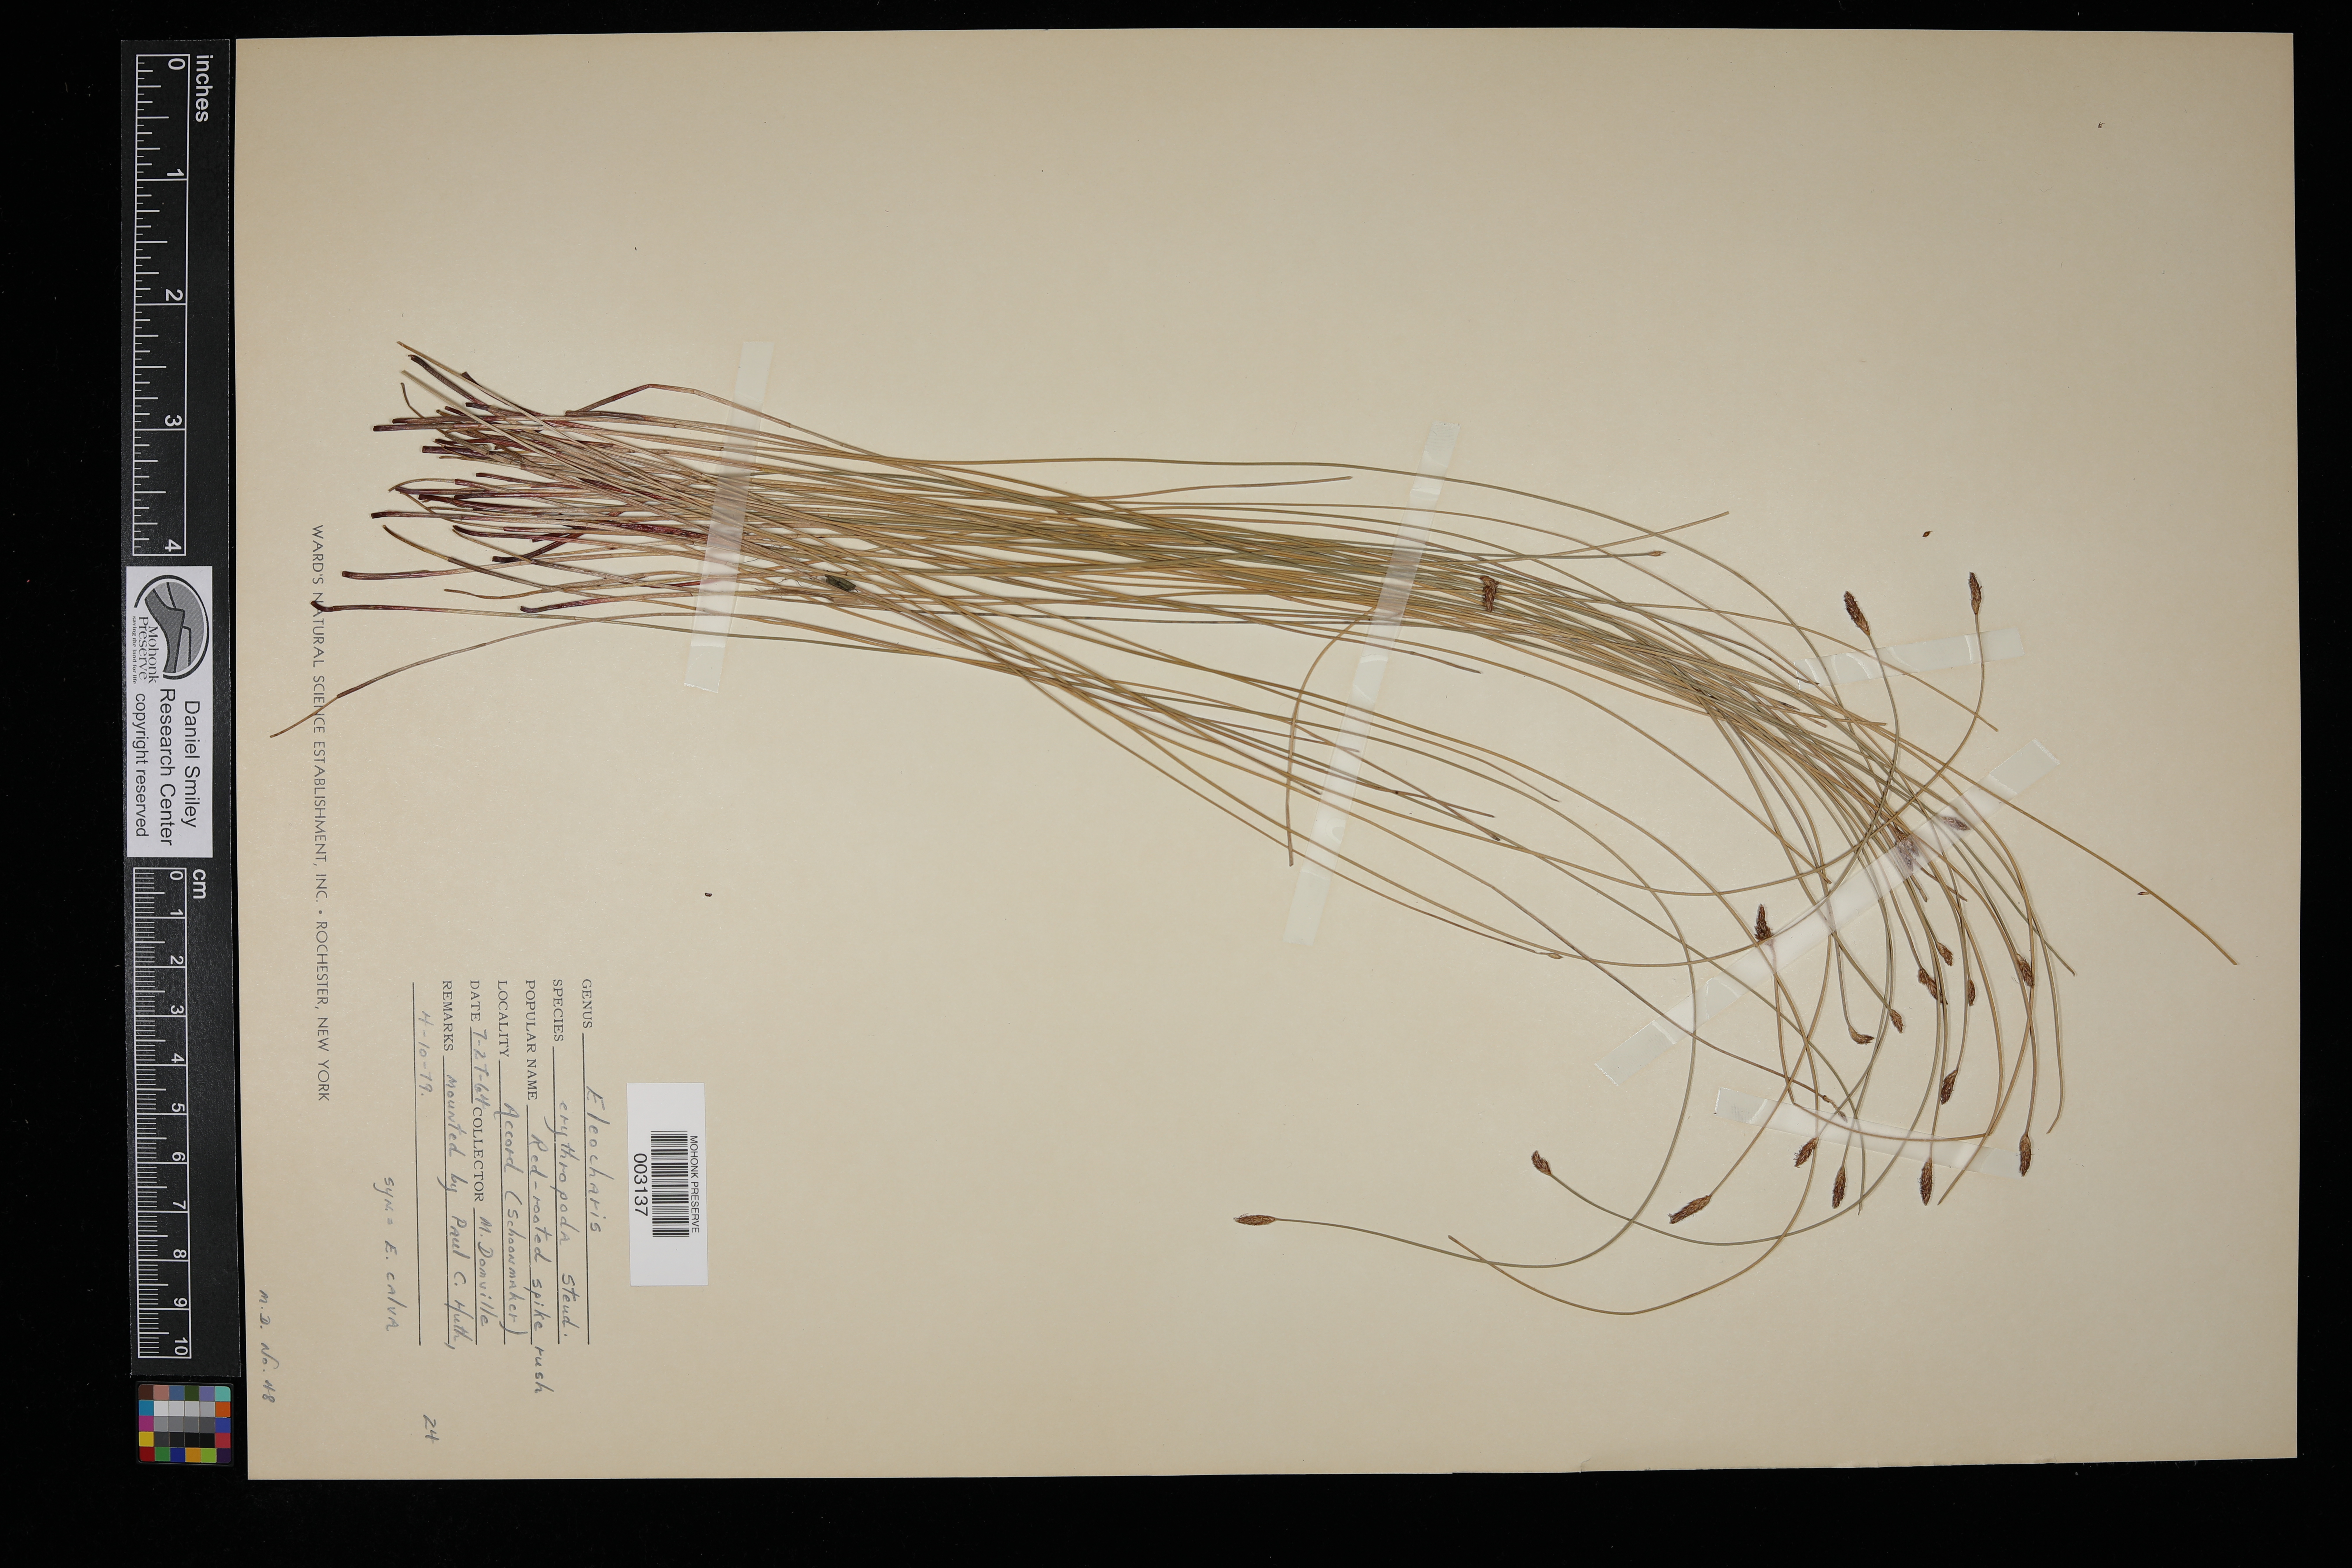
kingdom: Plantae
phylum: Tracheophyta
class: Liliopsida
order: Poales
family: Cyperaceae
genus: Eleocharis
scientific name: Eleocharis erythropoda
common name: Bald spikerush
